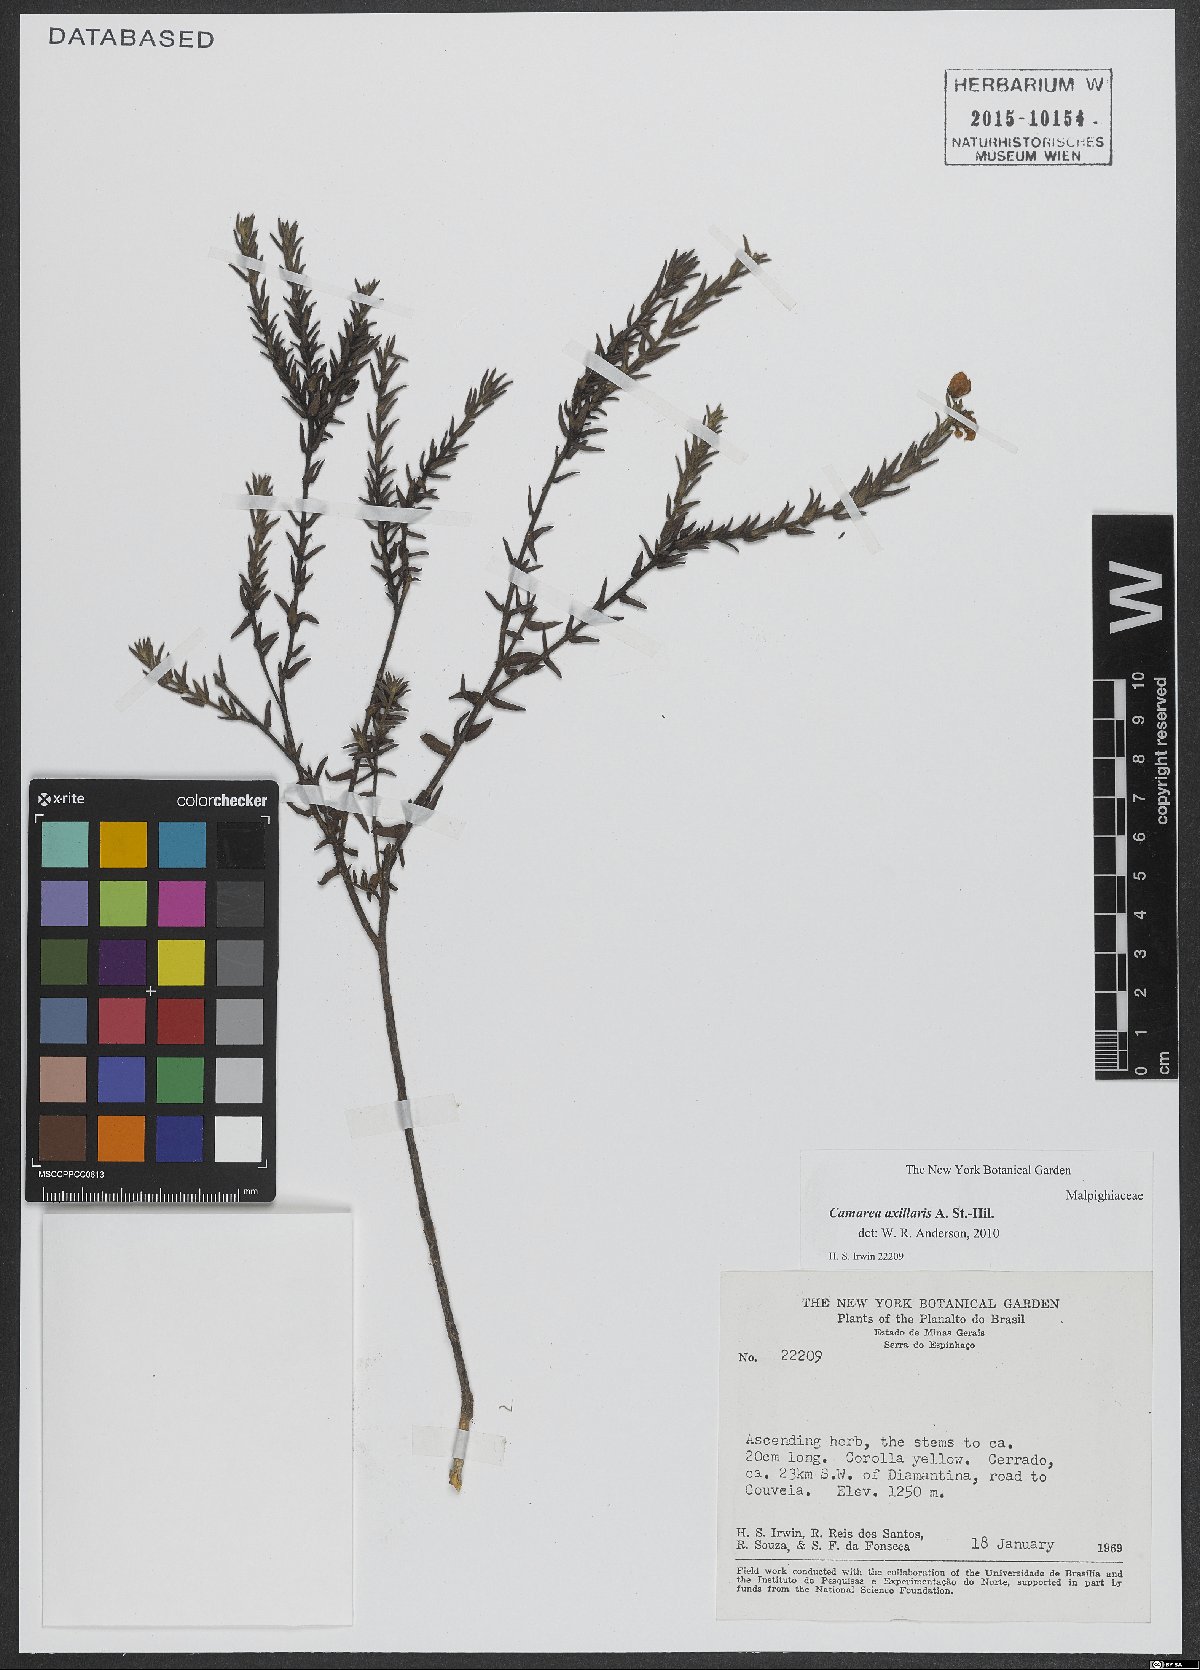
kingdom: Plantae
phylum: Tracheophyta
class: Magnoliopsida
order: Malpighiales
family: Malpighiaceae
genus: Camarea
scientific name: Camarea axillaris
